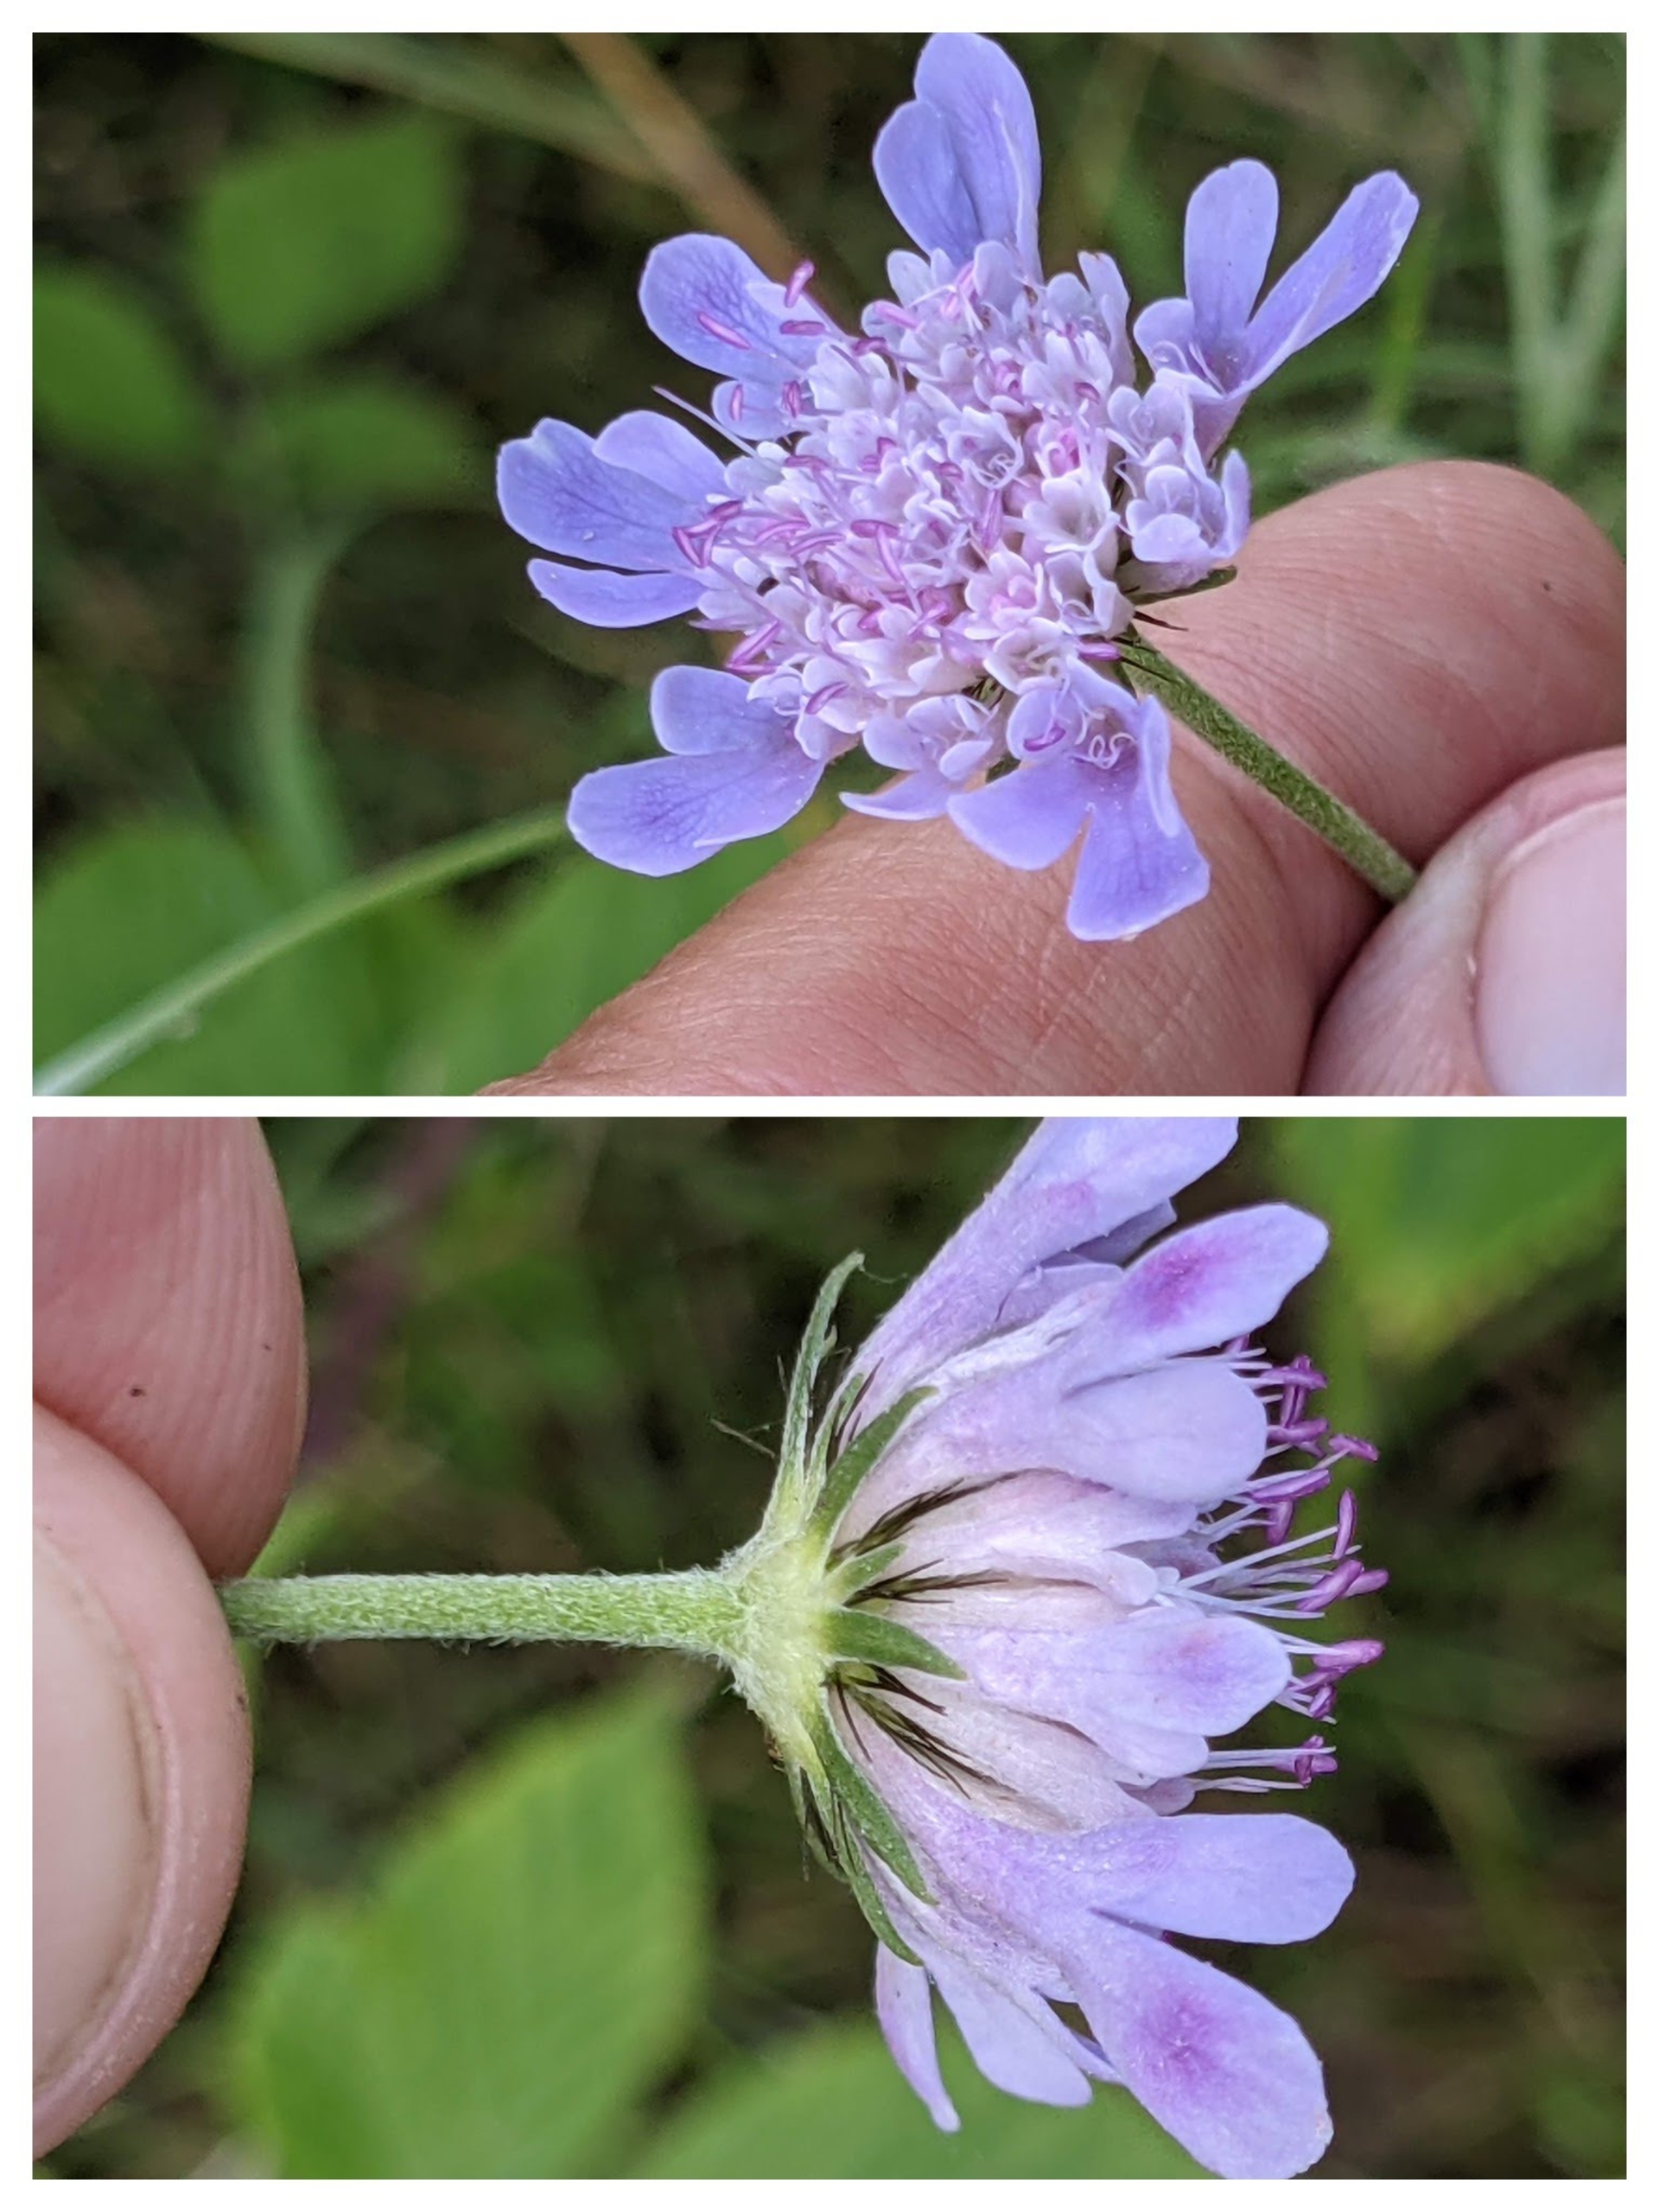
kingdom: Plantae
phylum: Tracheophyta
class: Magnoliopsida
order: Dipsacales
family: Caprifoliaceae
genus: Scabiosa
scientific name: Scabiosa columbaria
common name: Due-skabiose
